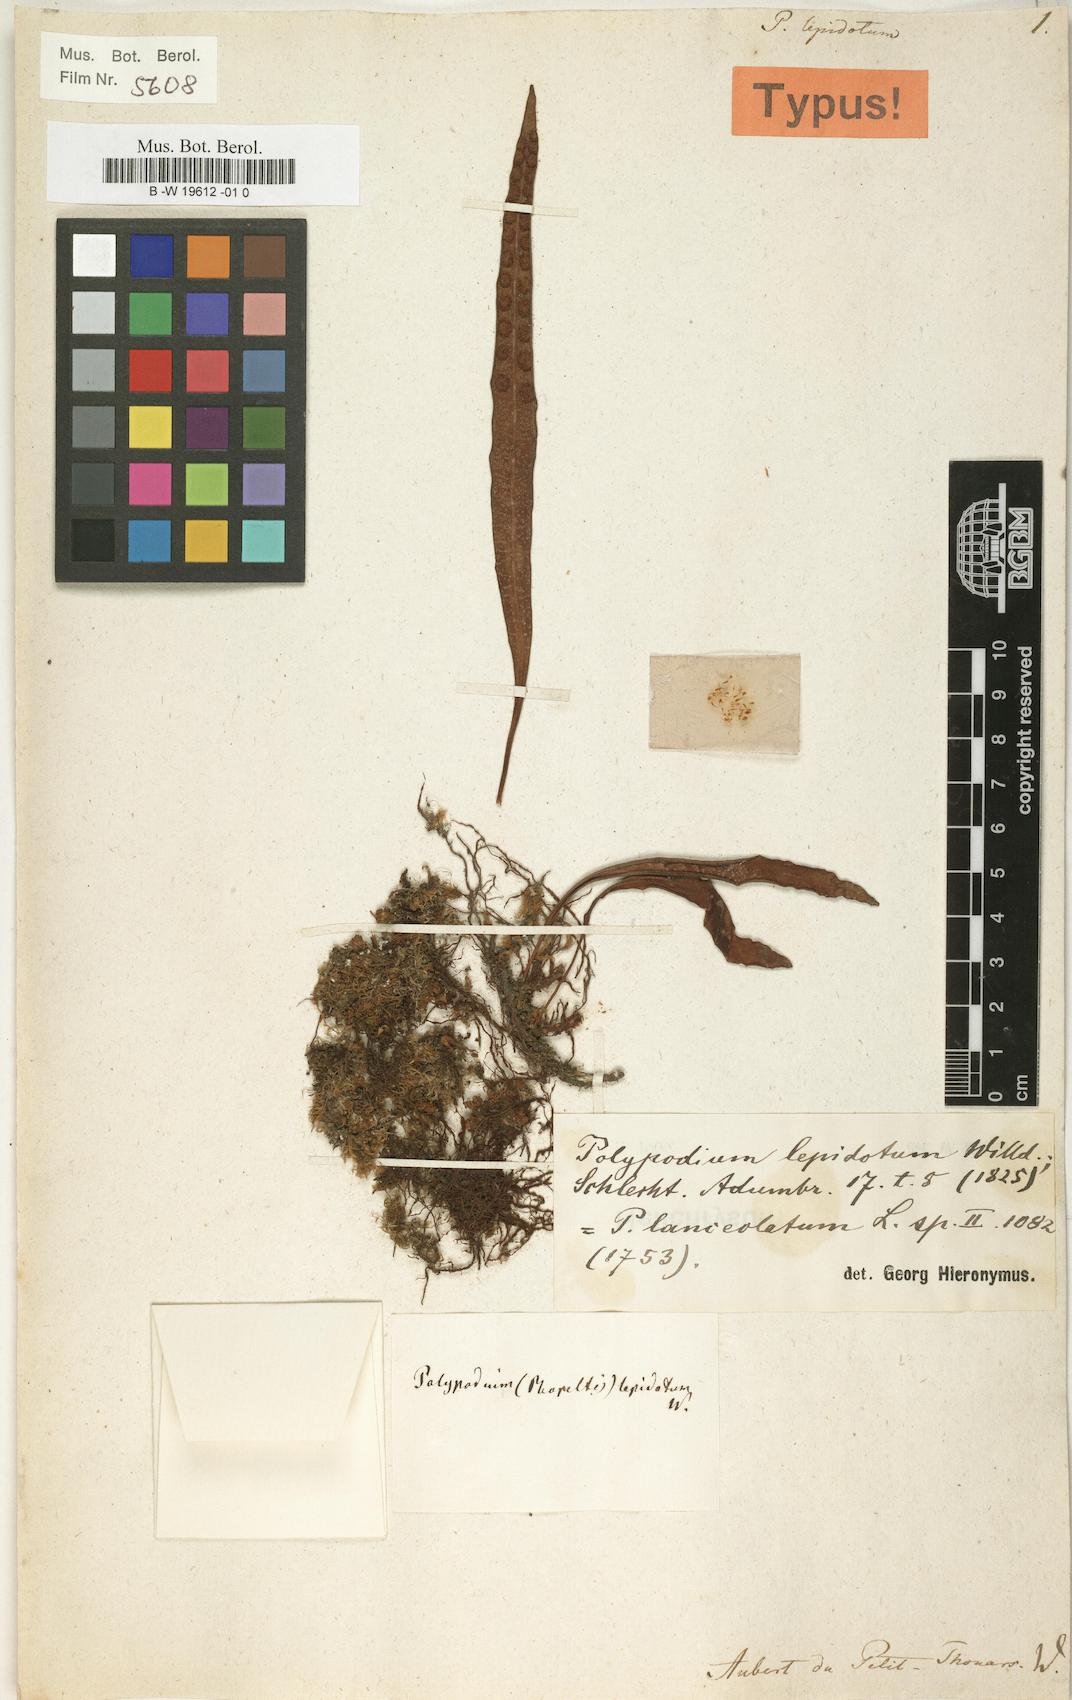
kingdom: Plantae
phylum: Tracheophyta
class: Polypodiopsida
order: Polypodiales
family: Polypodiaceae
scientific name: Polypodiaceae
